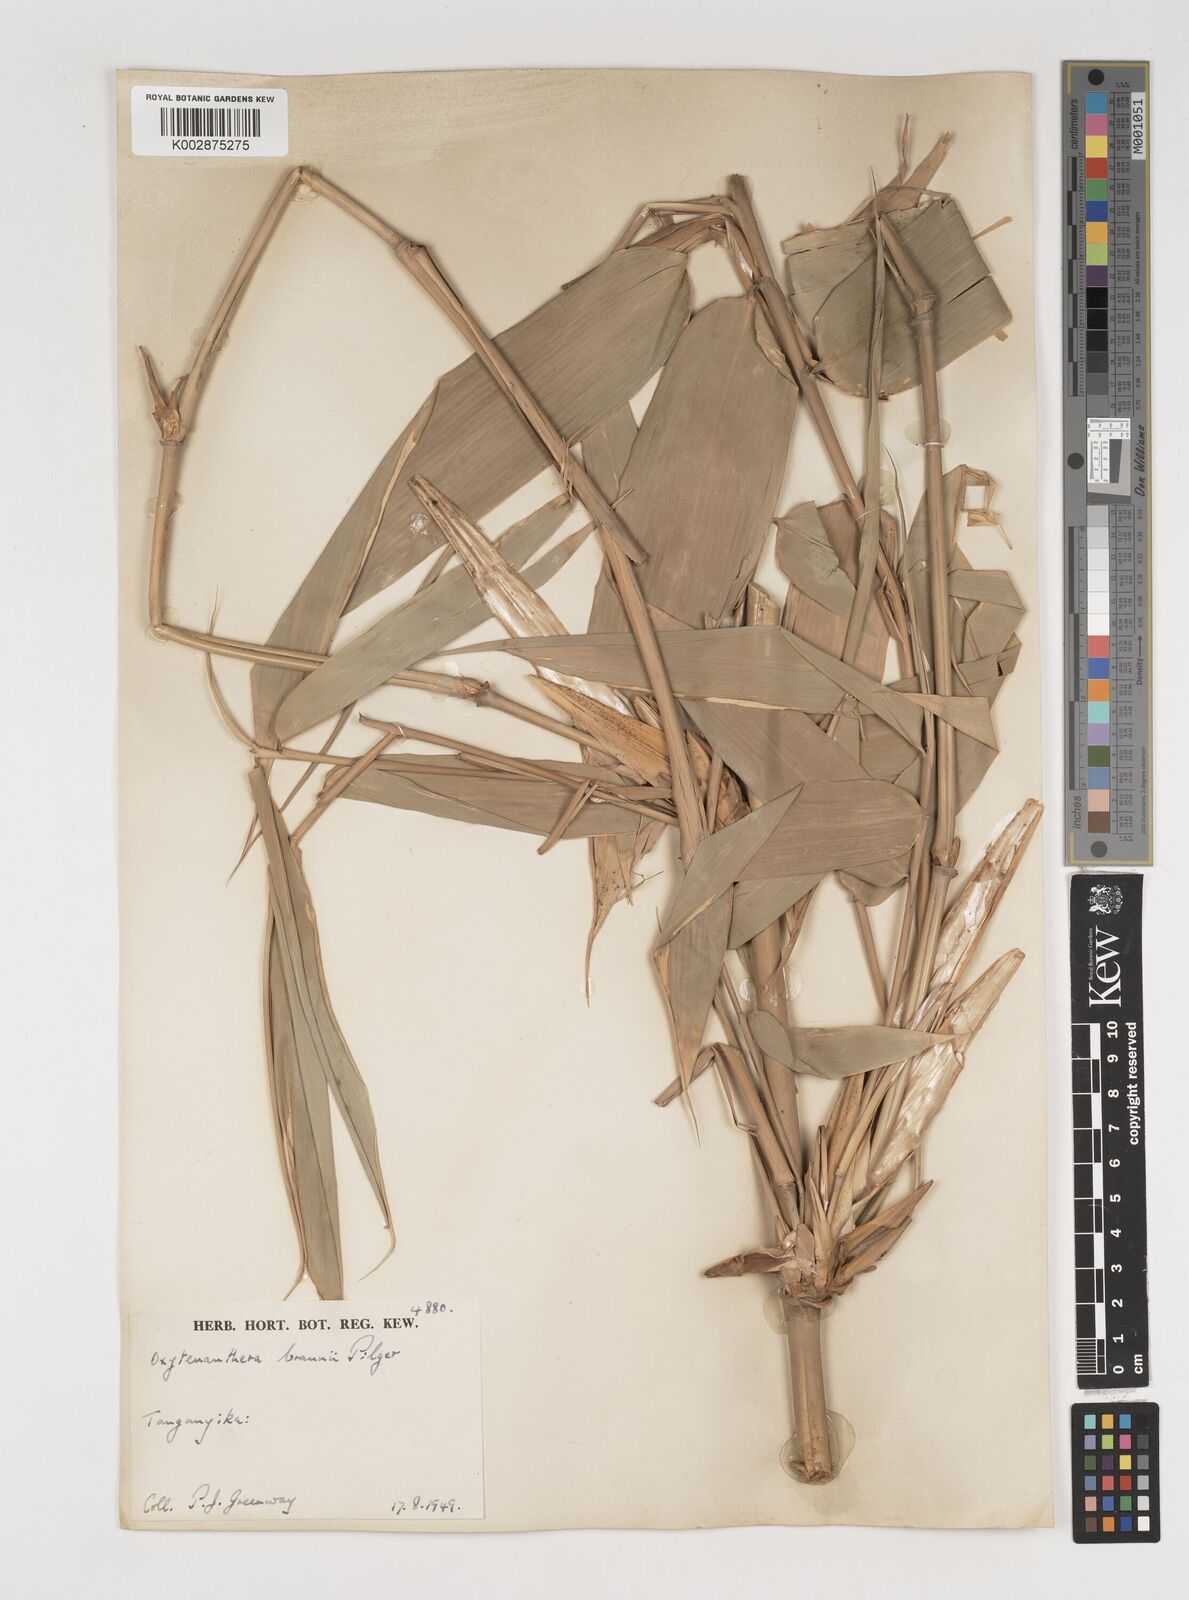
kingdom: Plantae
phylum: Tracheophyta
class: Liliopsida
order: Poales
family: Poaceae
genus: Oxytenanthera
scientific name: Oxytenanthera abyssinica
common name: Wine bamboo
